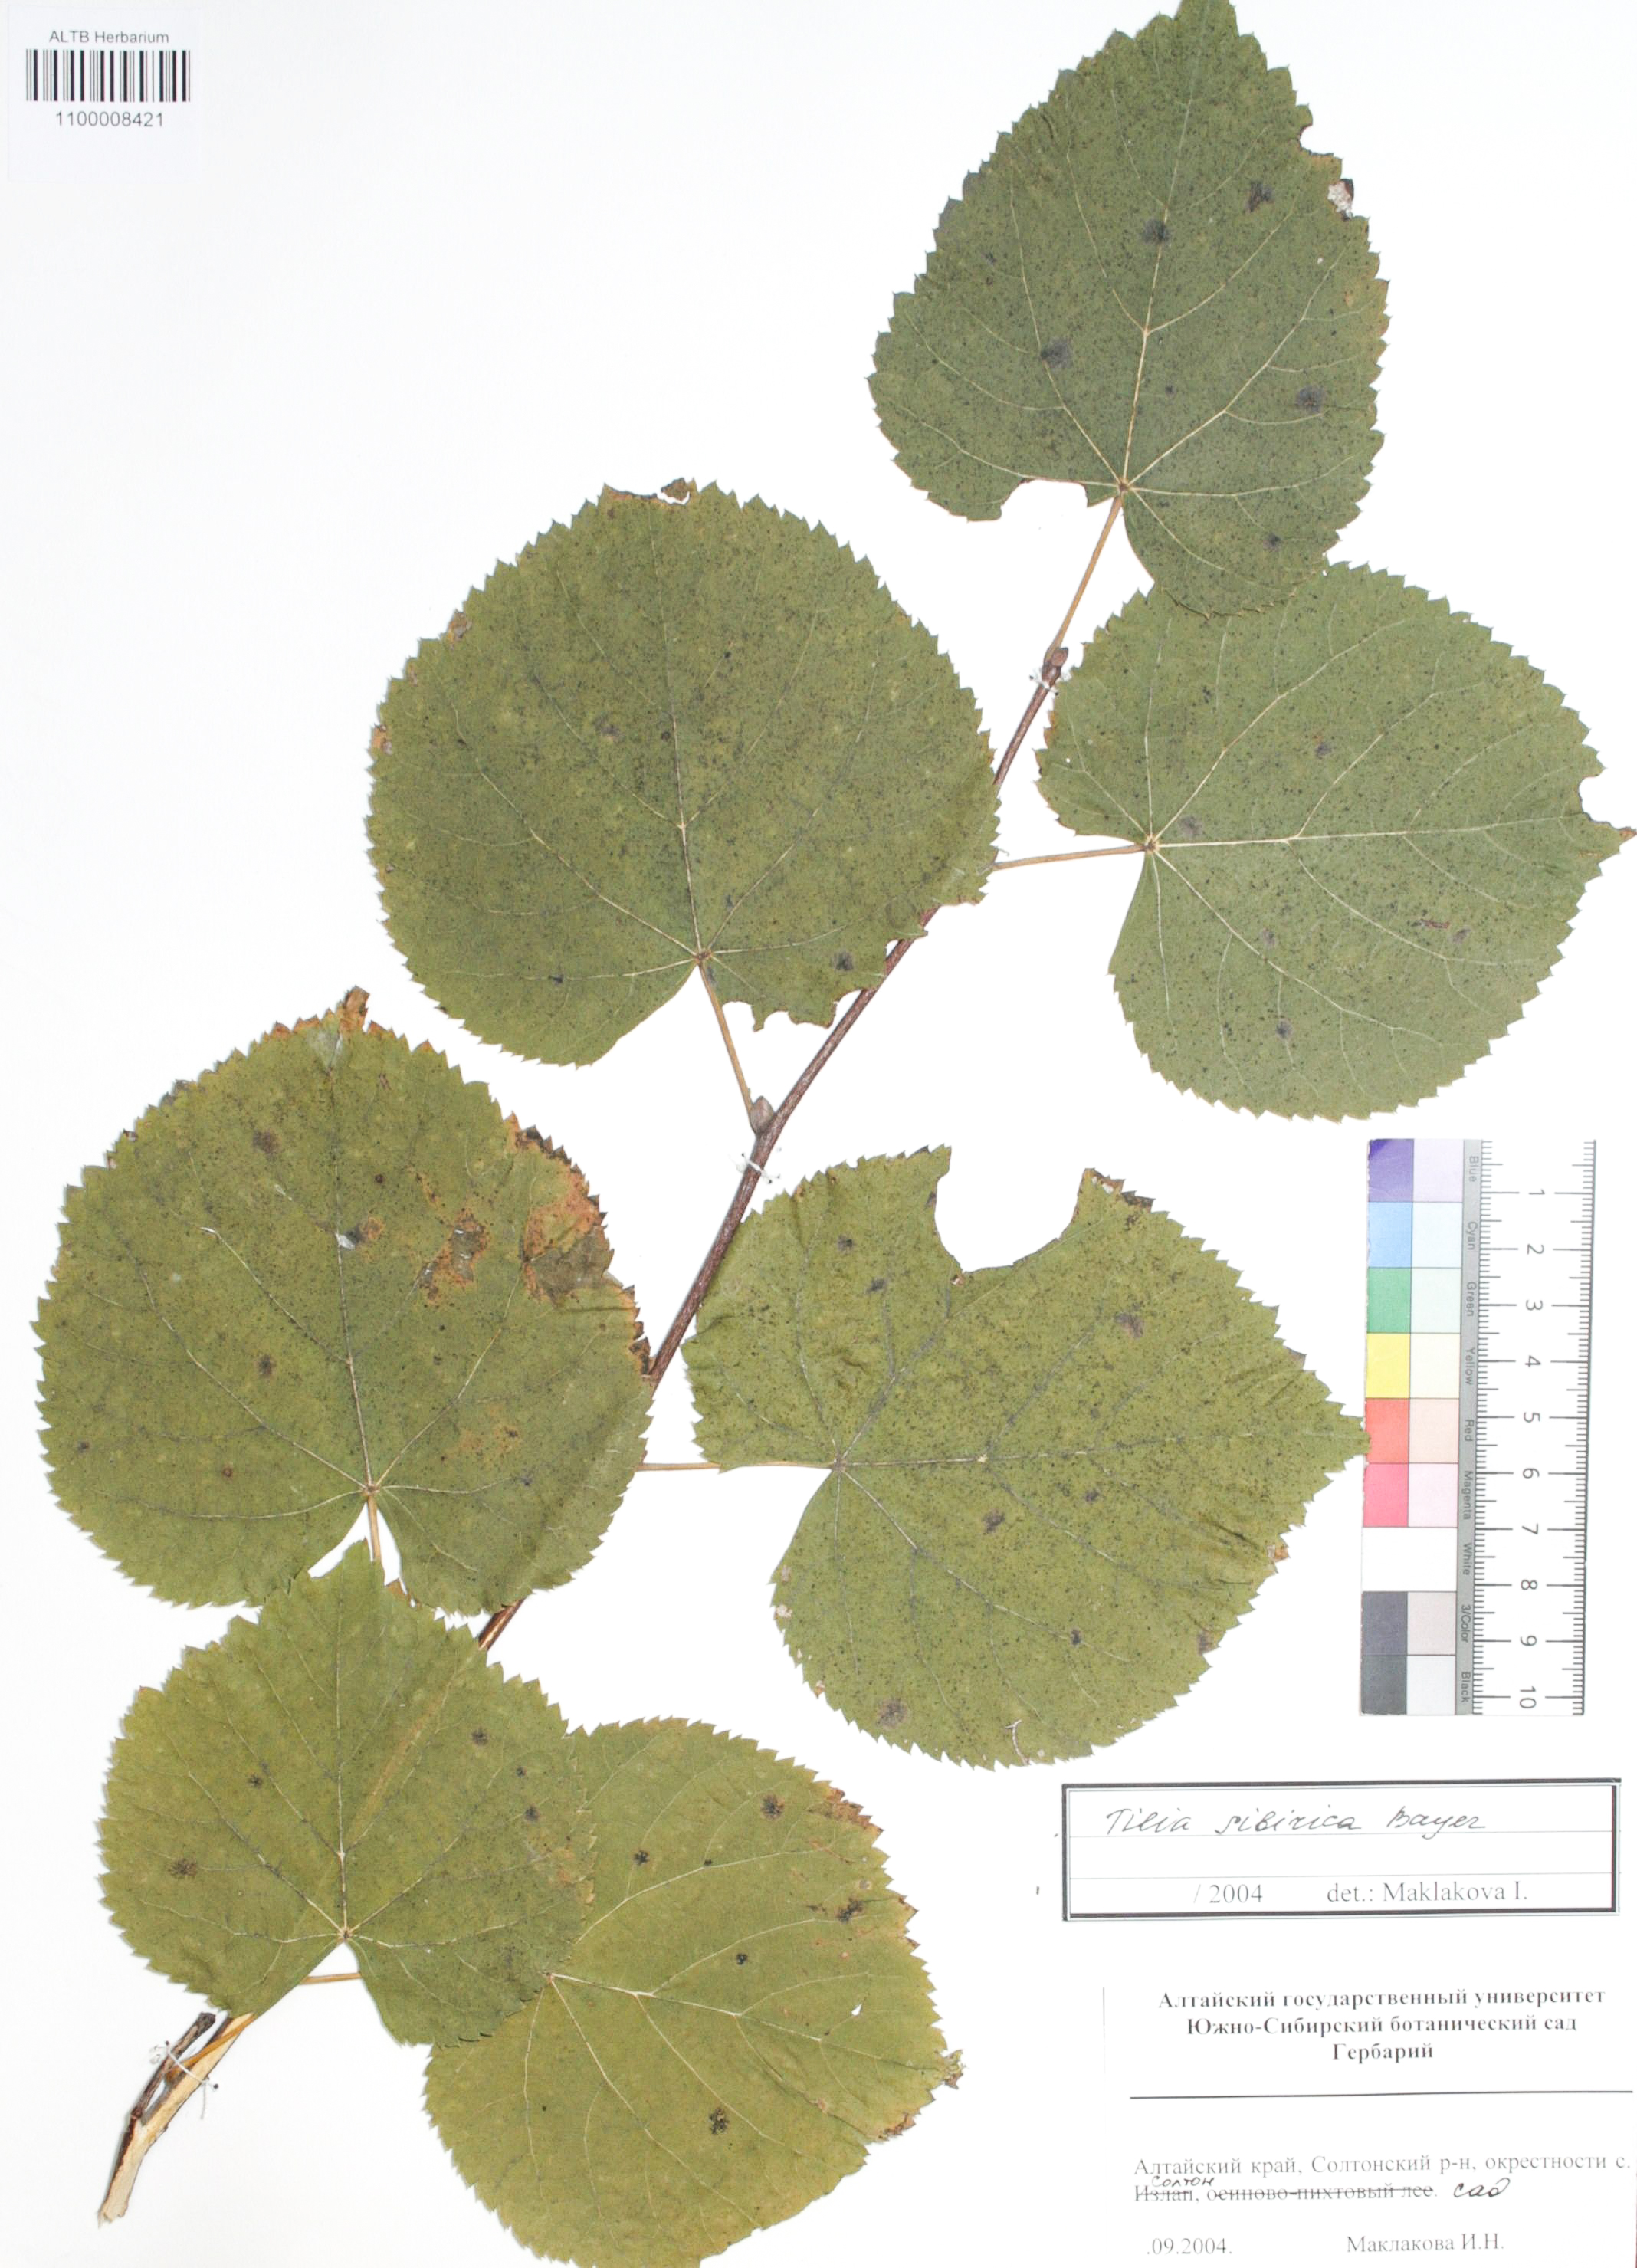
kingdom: Plantae
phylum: Tracheophyta
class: Magnoliopsida
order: Malvales
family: Malvaceae
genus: Tilia
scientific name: Tilia cordata
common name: Small-leaved lime
